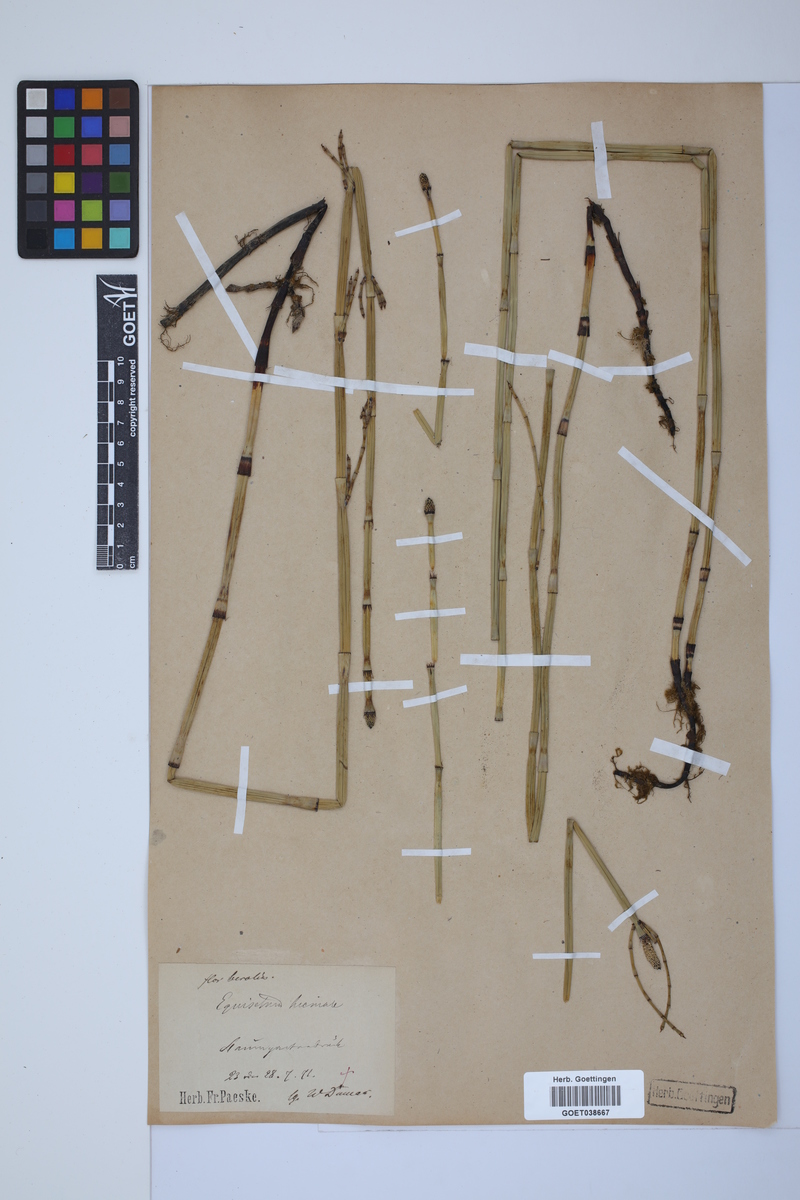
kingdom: Plantae
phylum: Tracheophyta
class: Polypodiopsida
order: Equisetales
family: Equisetaceae
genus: Equisetum
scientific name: Equisetum hyemale
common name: Rough horsetail
